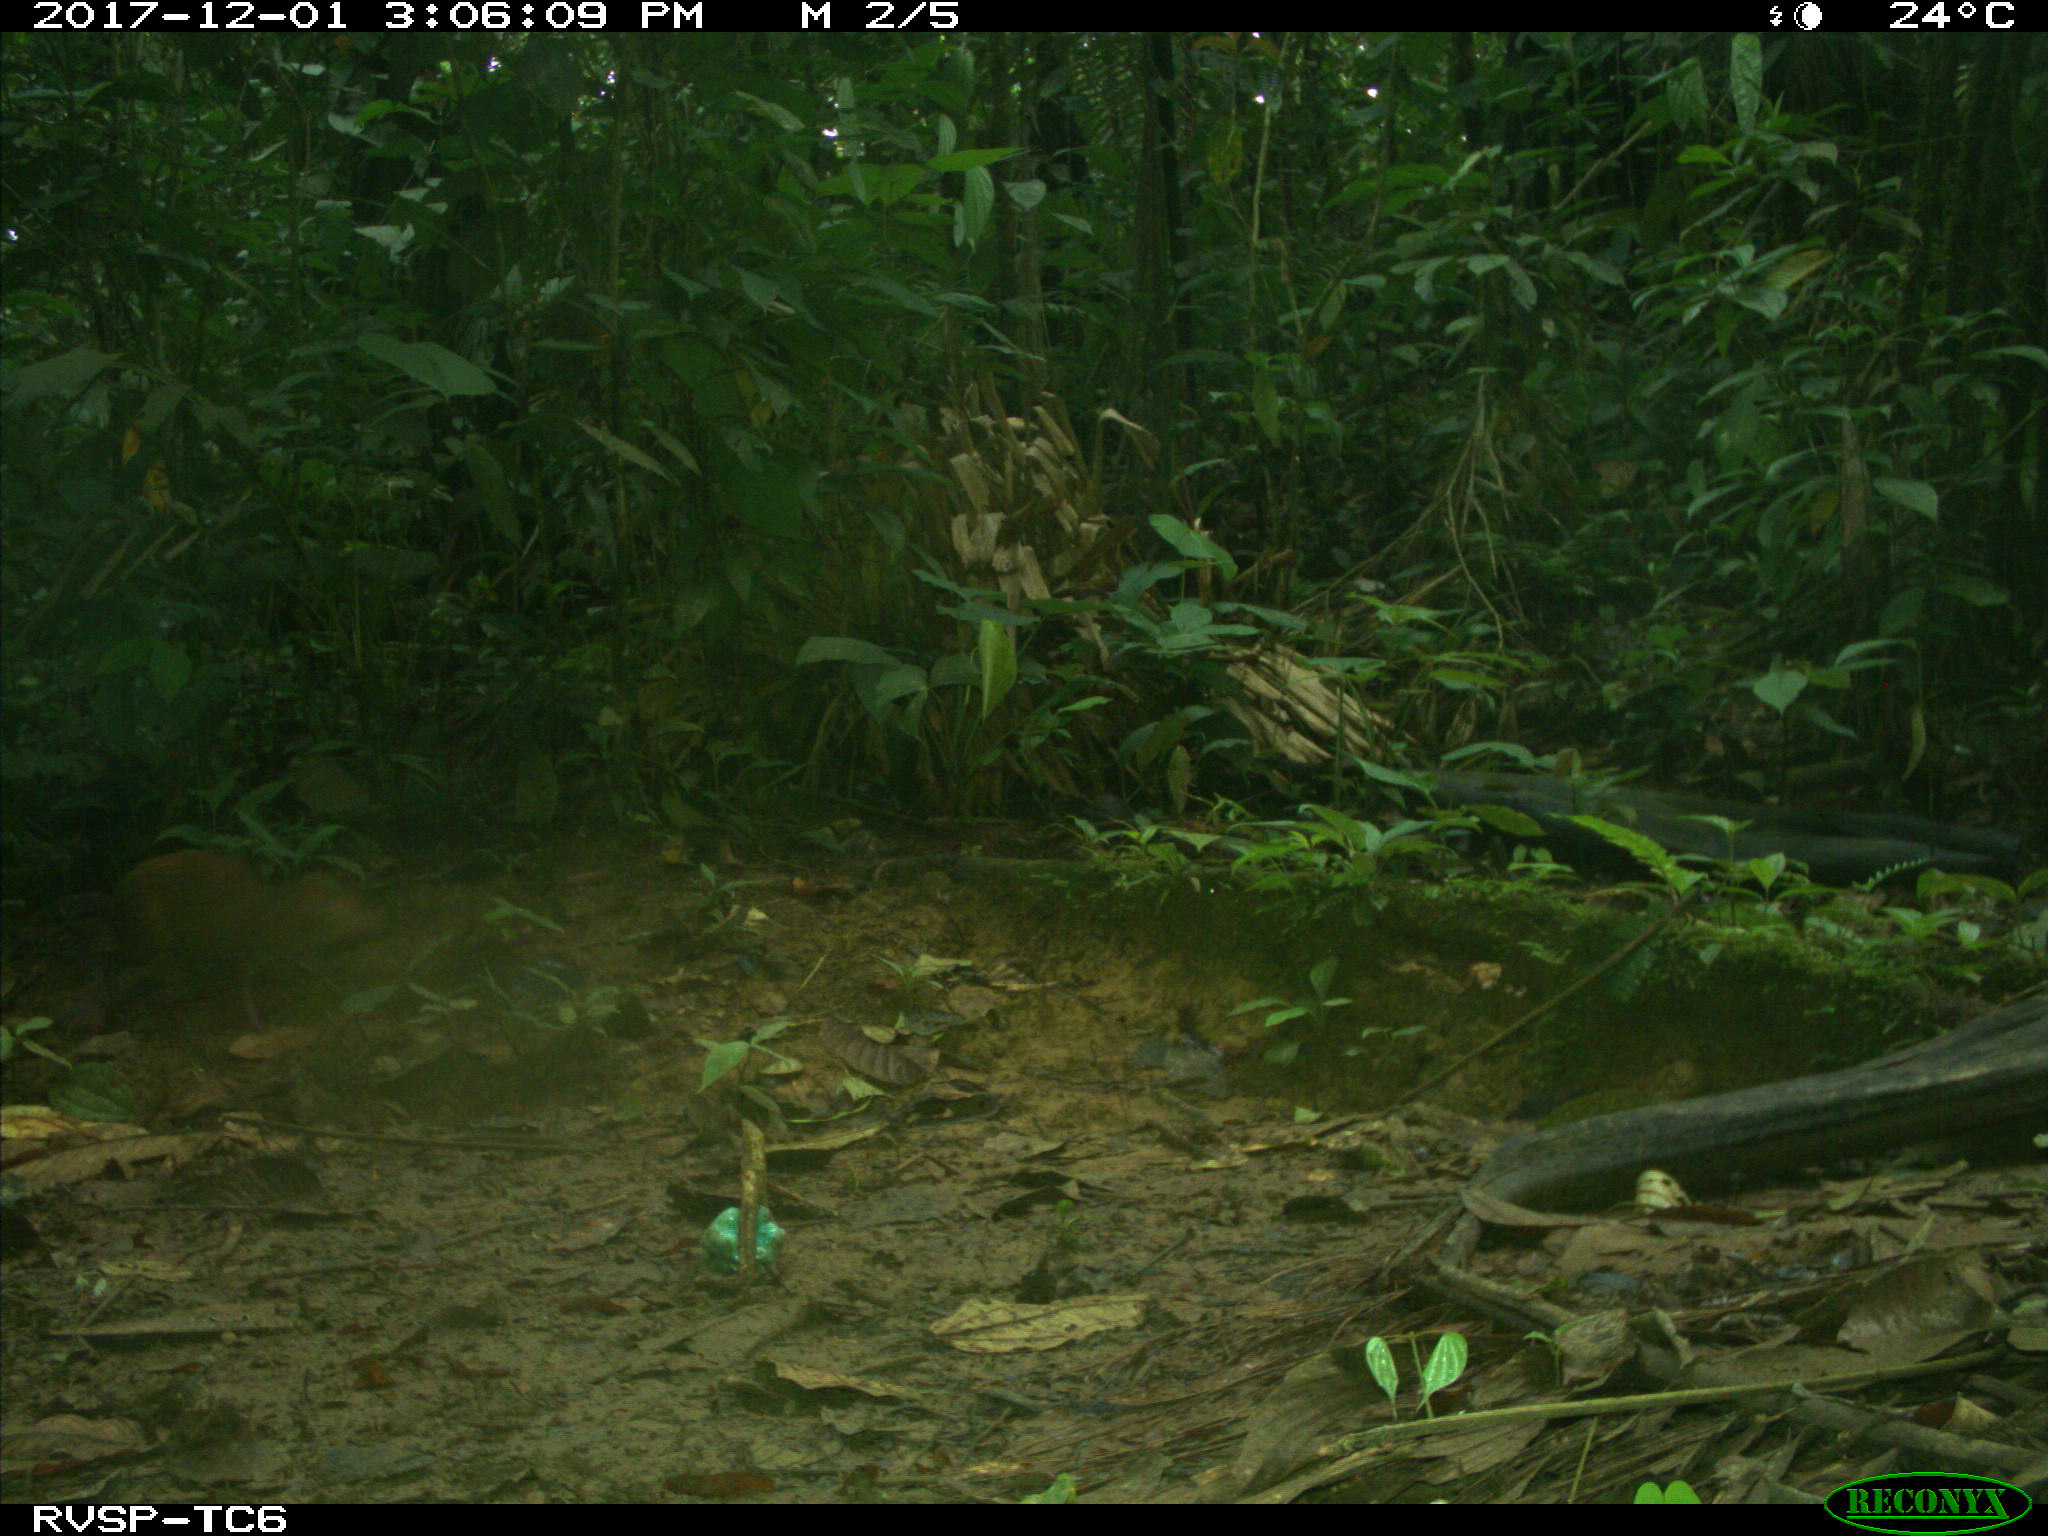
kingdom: Animalia
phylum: Chordata
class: Mammalia
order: Rodentia
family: Dasyproctidae
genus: Dasyprocta
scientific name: Dasyprocta punctata
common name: Central american agouti
